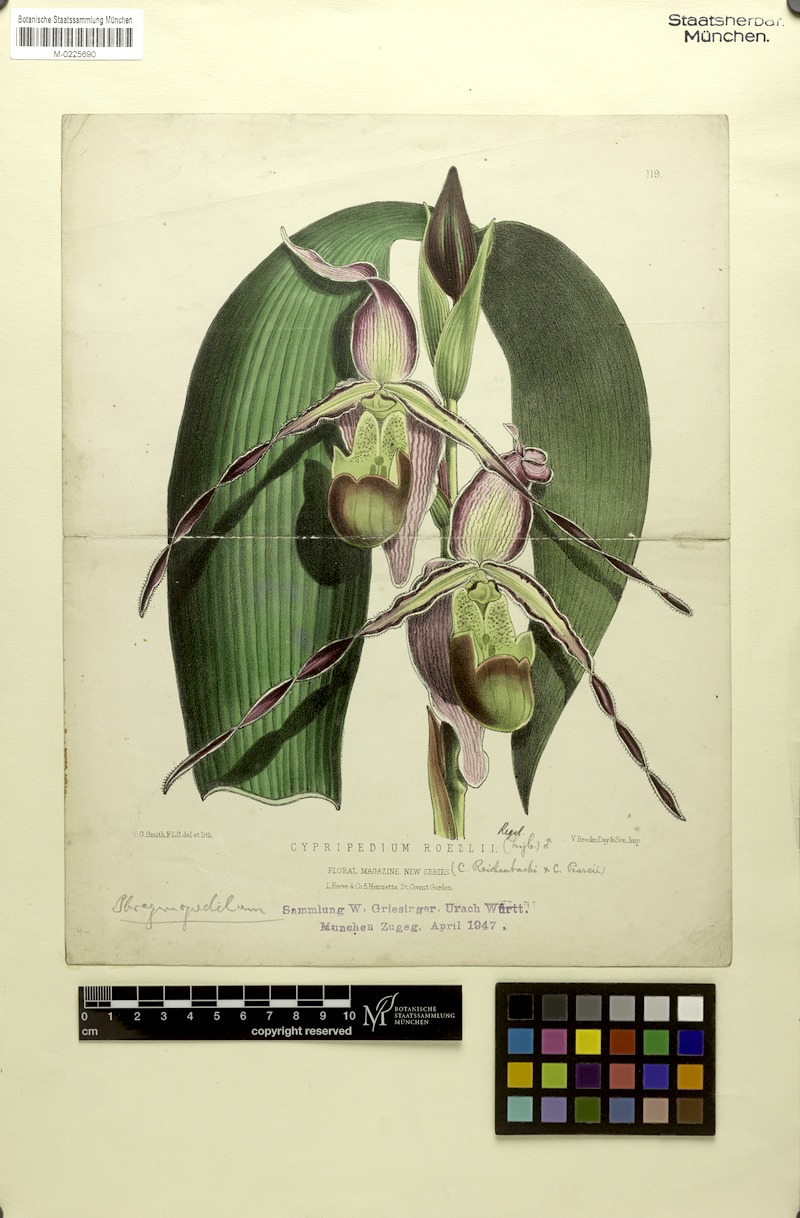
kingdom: Plantae
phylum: Tracheophyta
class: Liliopsida
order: Asparagales
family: Orchidaceae
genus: Phragmipedium
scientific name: Phragmipedium longifolium
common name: Long-leaf phragmipedium
